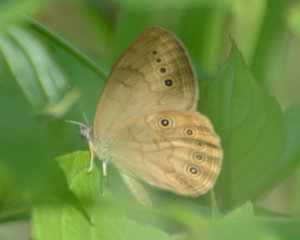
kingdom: Animalia
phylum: Arthropoda
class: Insecta
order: Lepidoptera
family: Nymphalidae
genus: Lethe
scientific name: Lethe eurydice
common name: Eyed Brown
